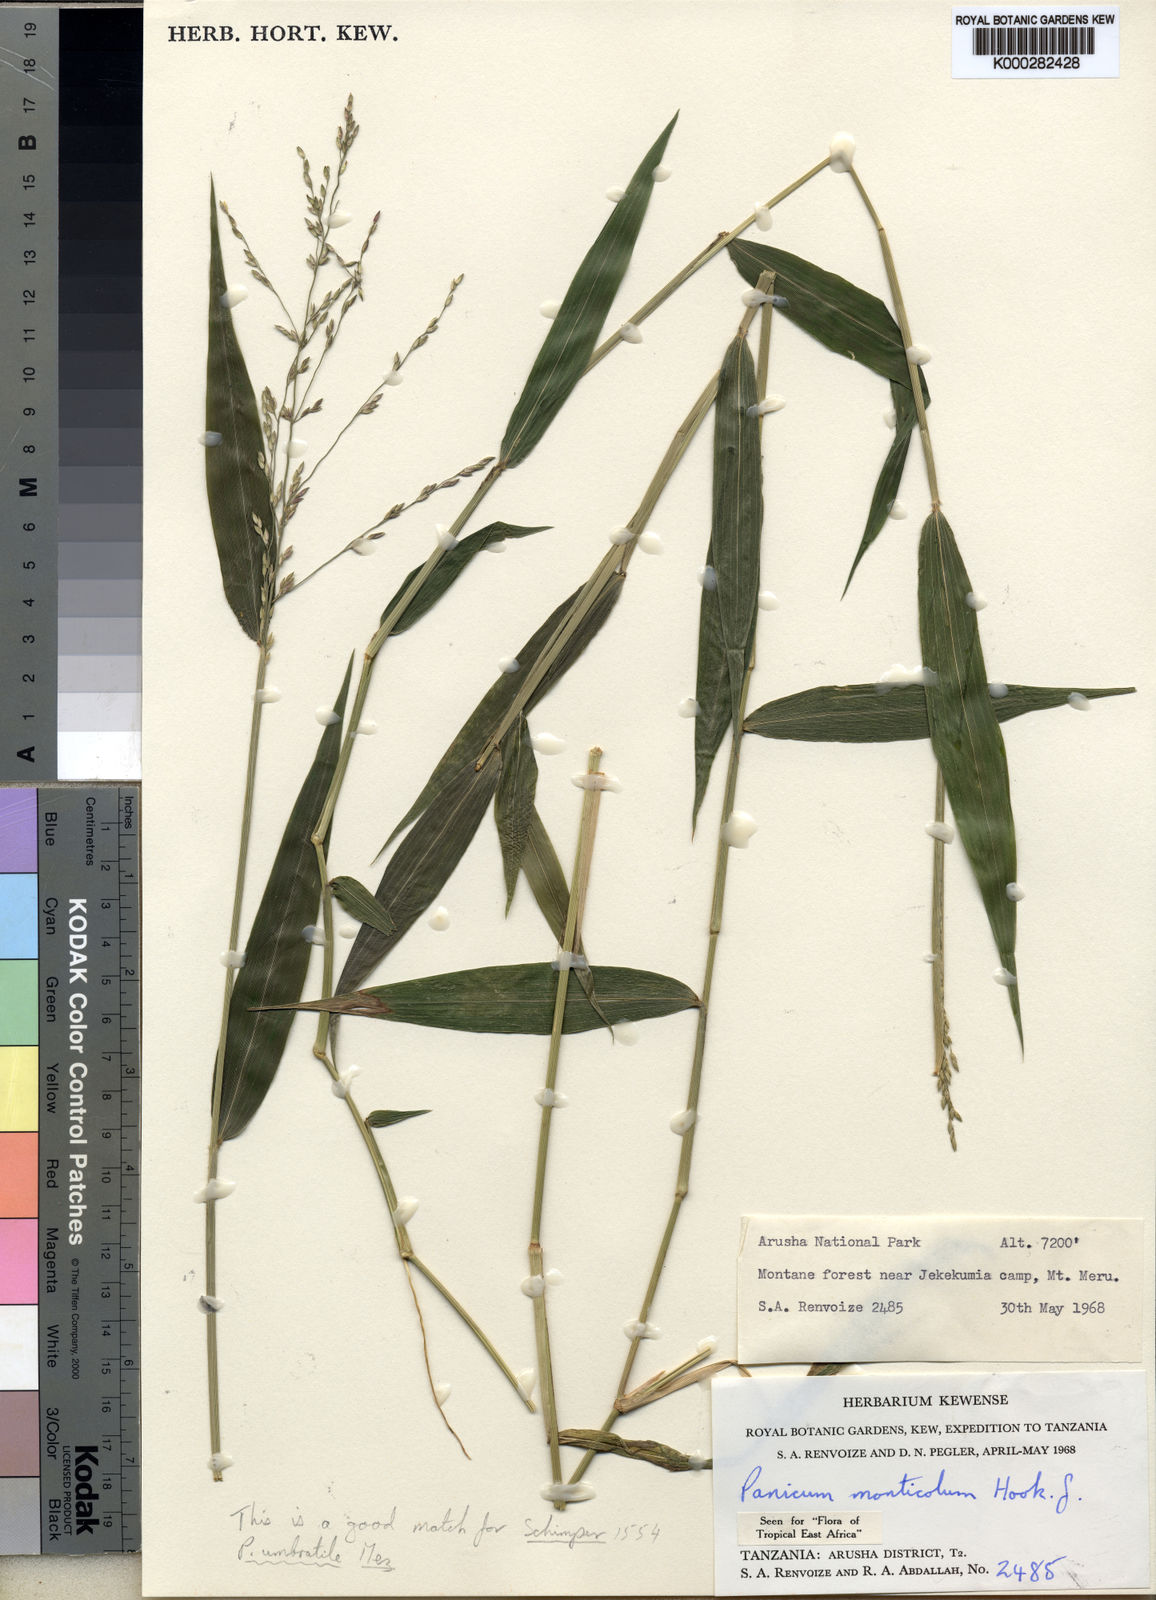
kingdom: Plantae
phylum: Tracheophyta
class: Liliopsida
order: Poales
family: Poaceae
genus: Panicum
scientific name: Panicum monticola
